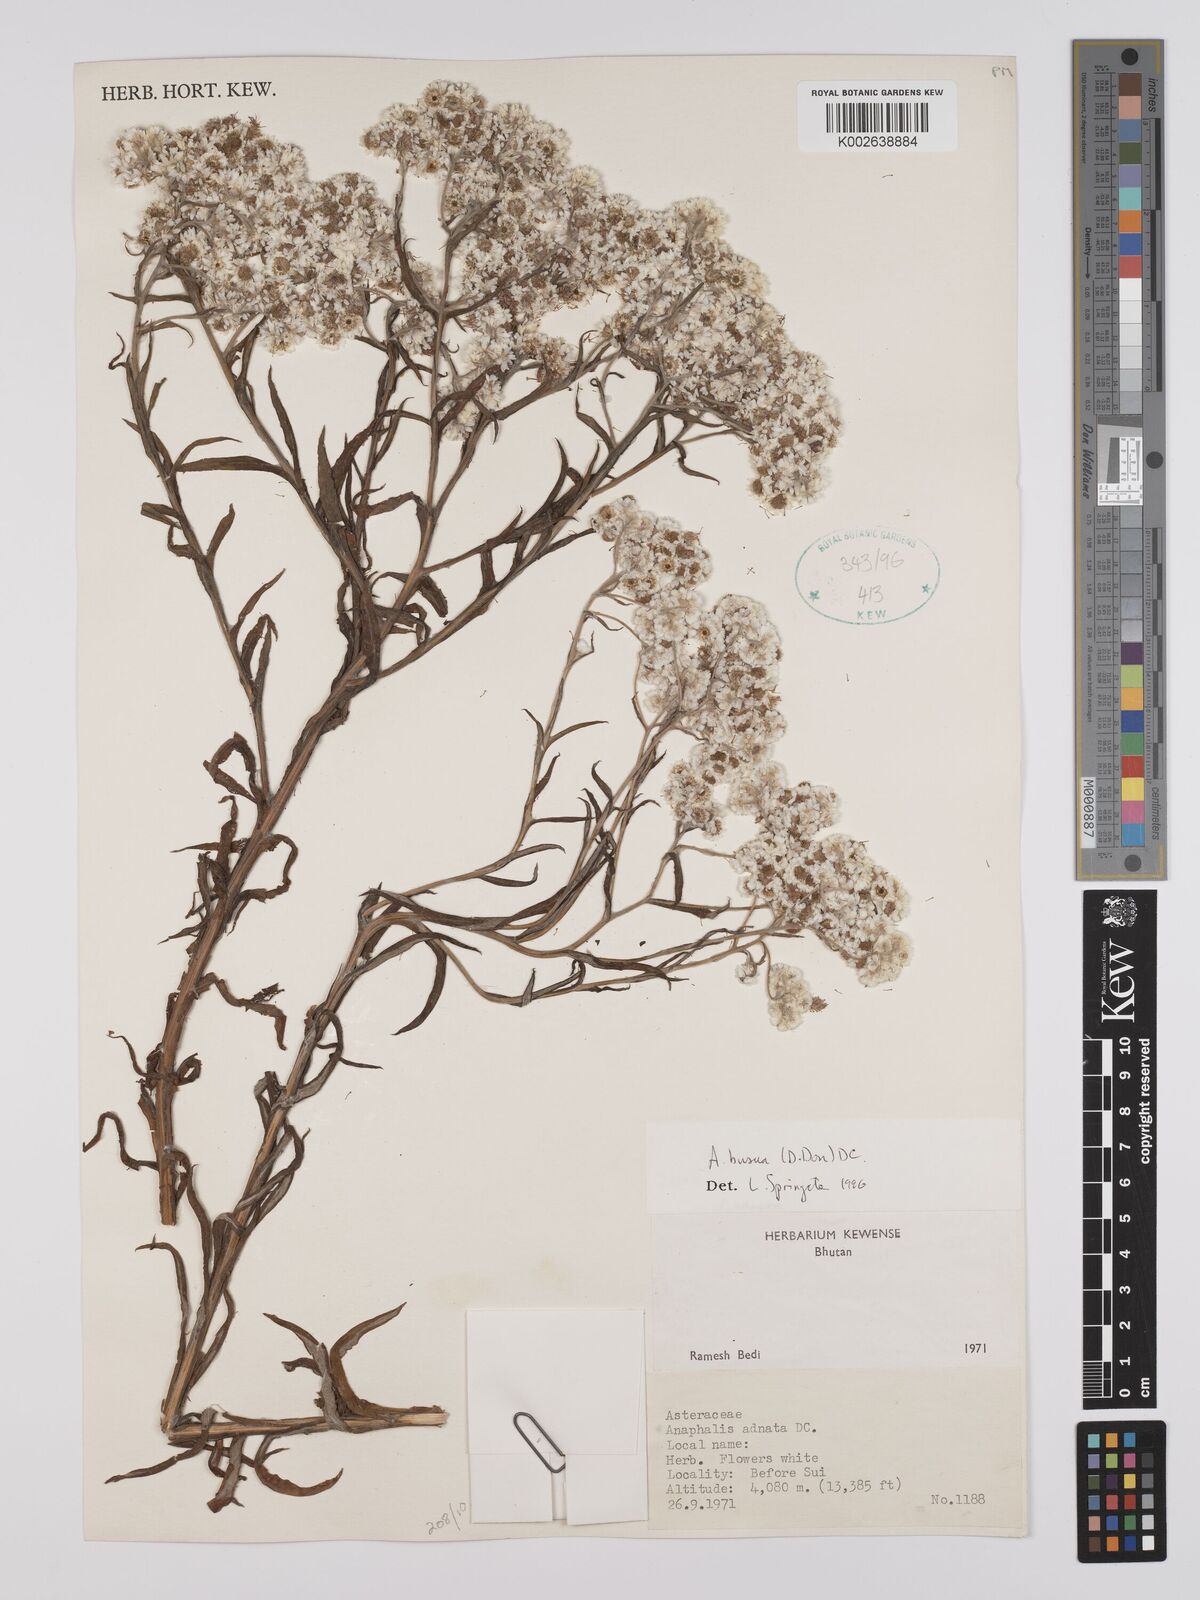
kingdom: Plantae
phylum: Tracheophyta
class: Magnoliopsida
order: Asterales
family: Asteraceae
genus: Anaphalis
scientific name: Anaphalis busua
